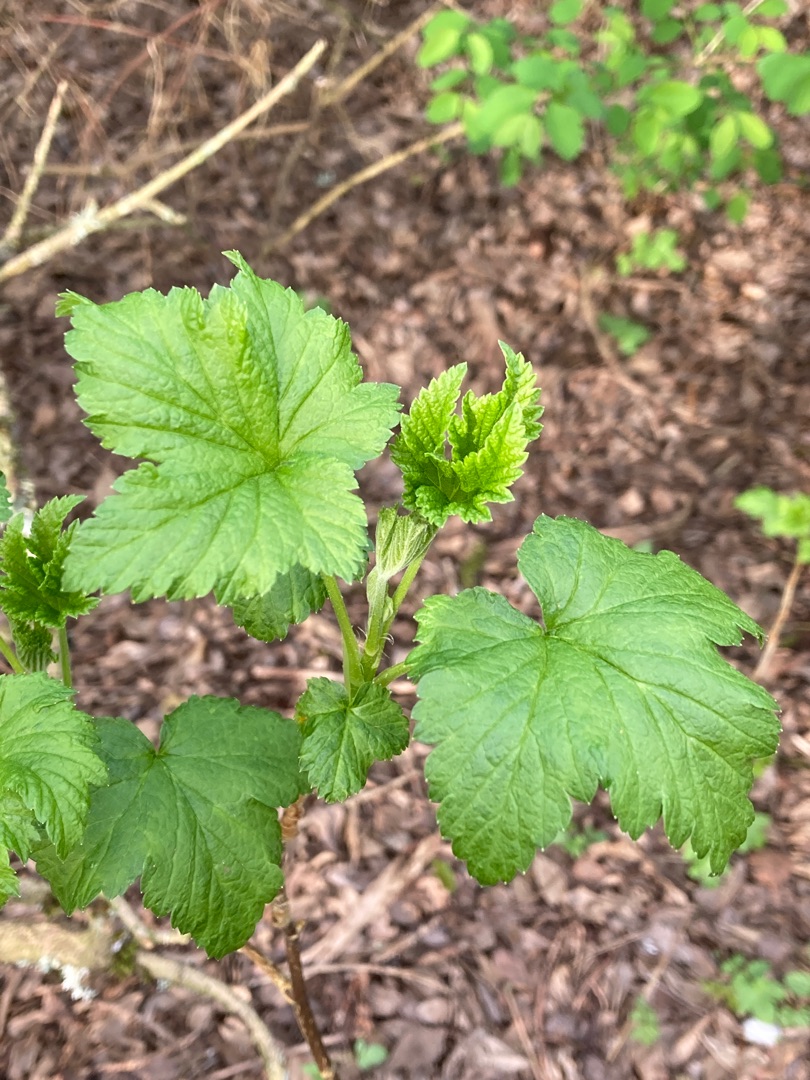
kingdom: Plantae
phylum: Tracheophyta
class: Magnoliopsida
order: Saxifragales
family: Grossulariaceae
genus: Ribes
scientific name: Ribes nigrum
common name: Solbær
